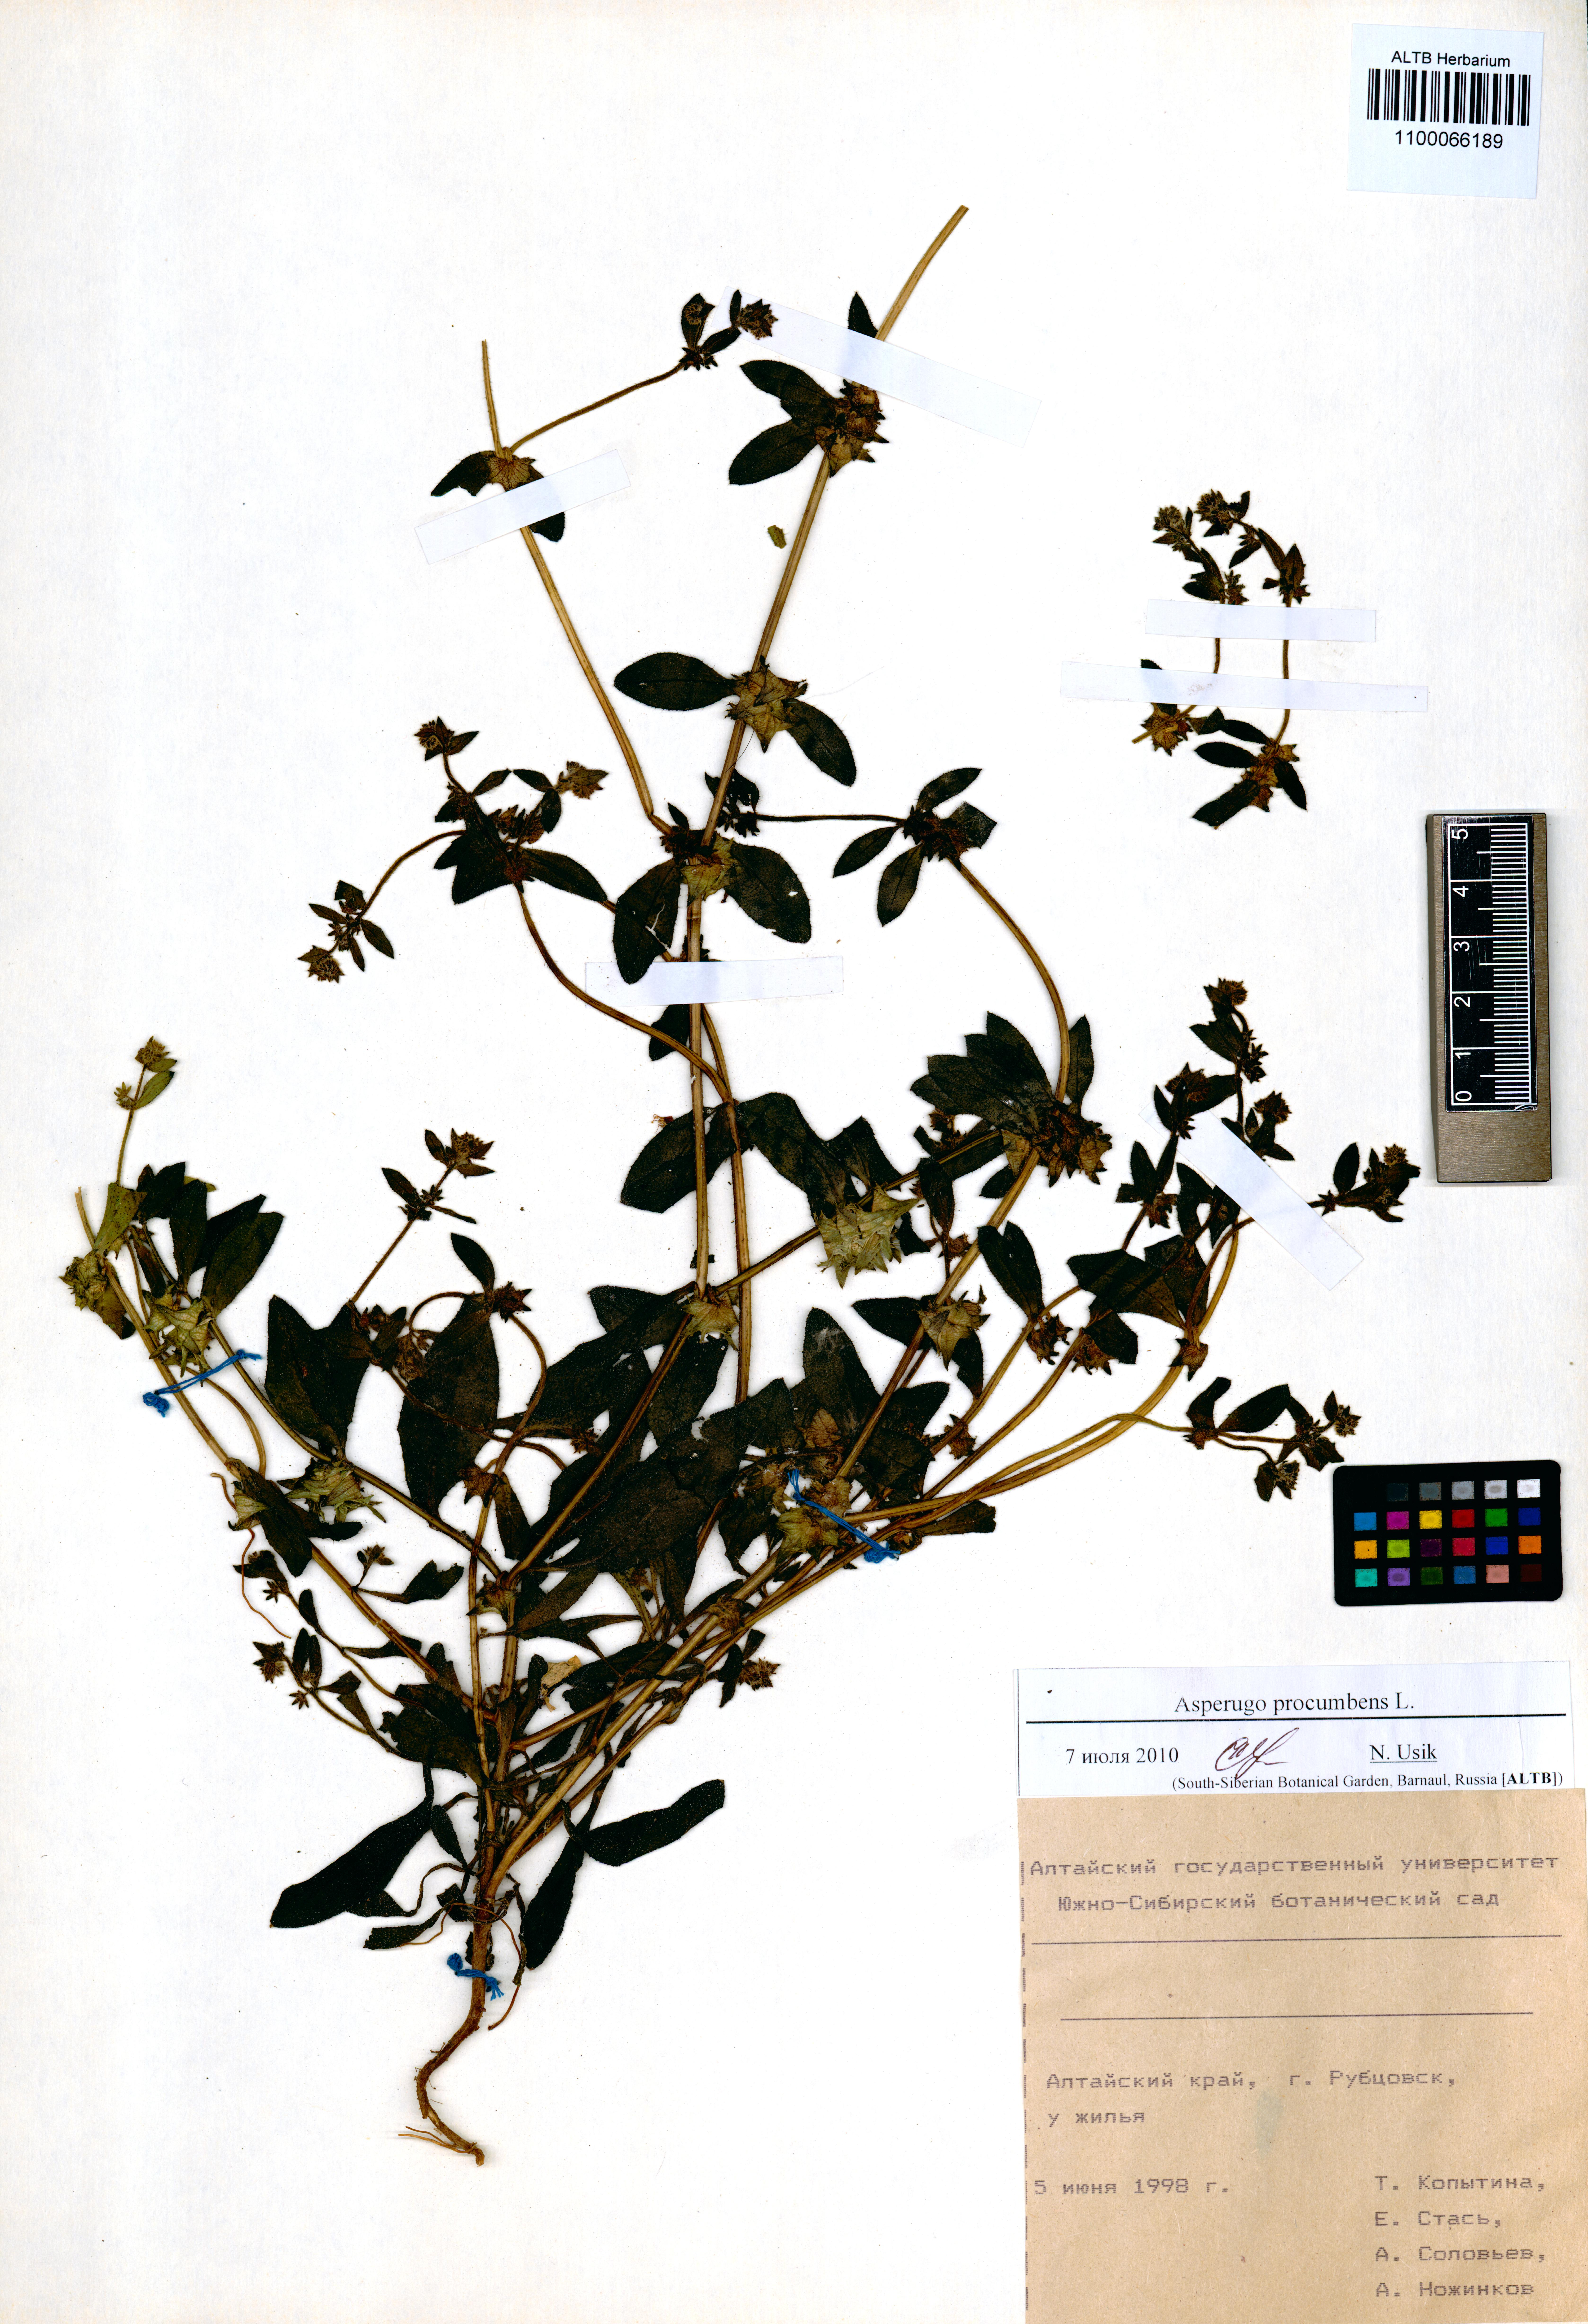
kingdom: Plantae
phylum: Tracheophyta
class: Magnoliopsida
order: Boraginales
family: Boraginaceae
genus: Asperugo
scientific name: Asperugo procumbens
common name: Madwort
